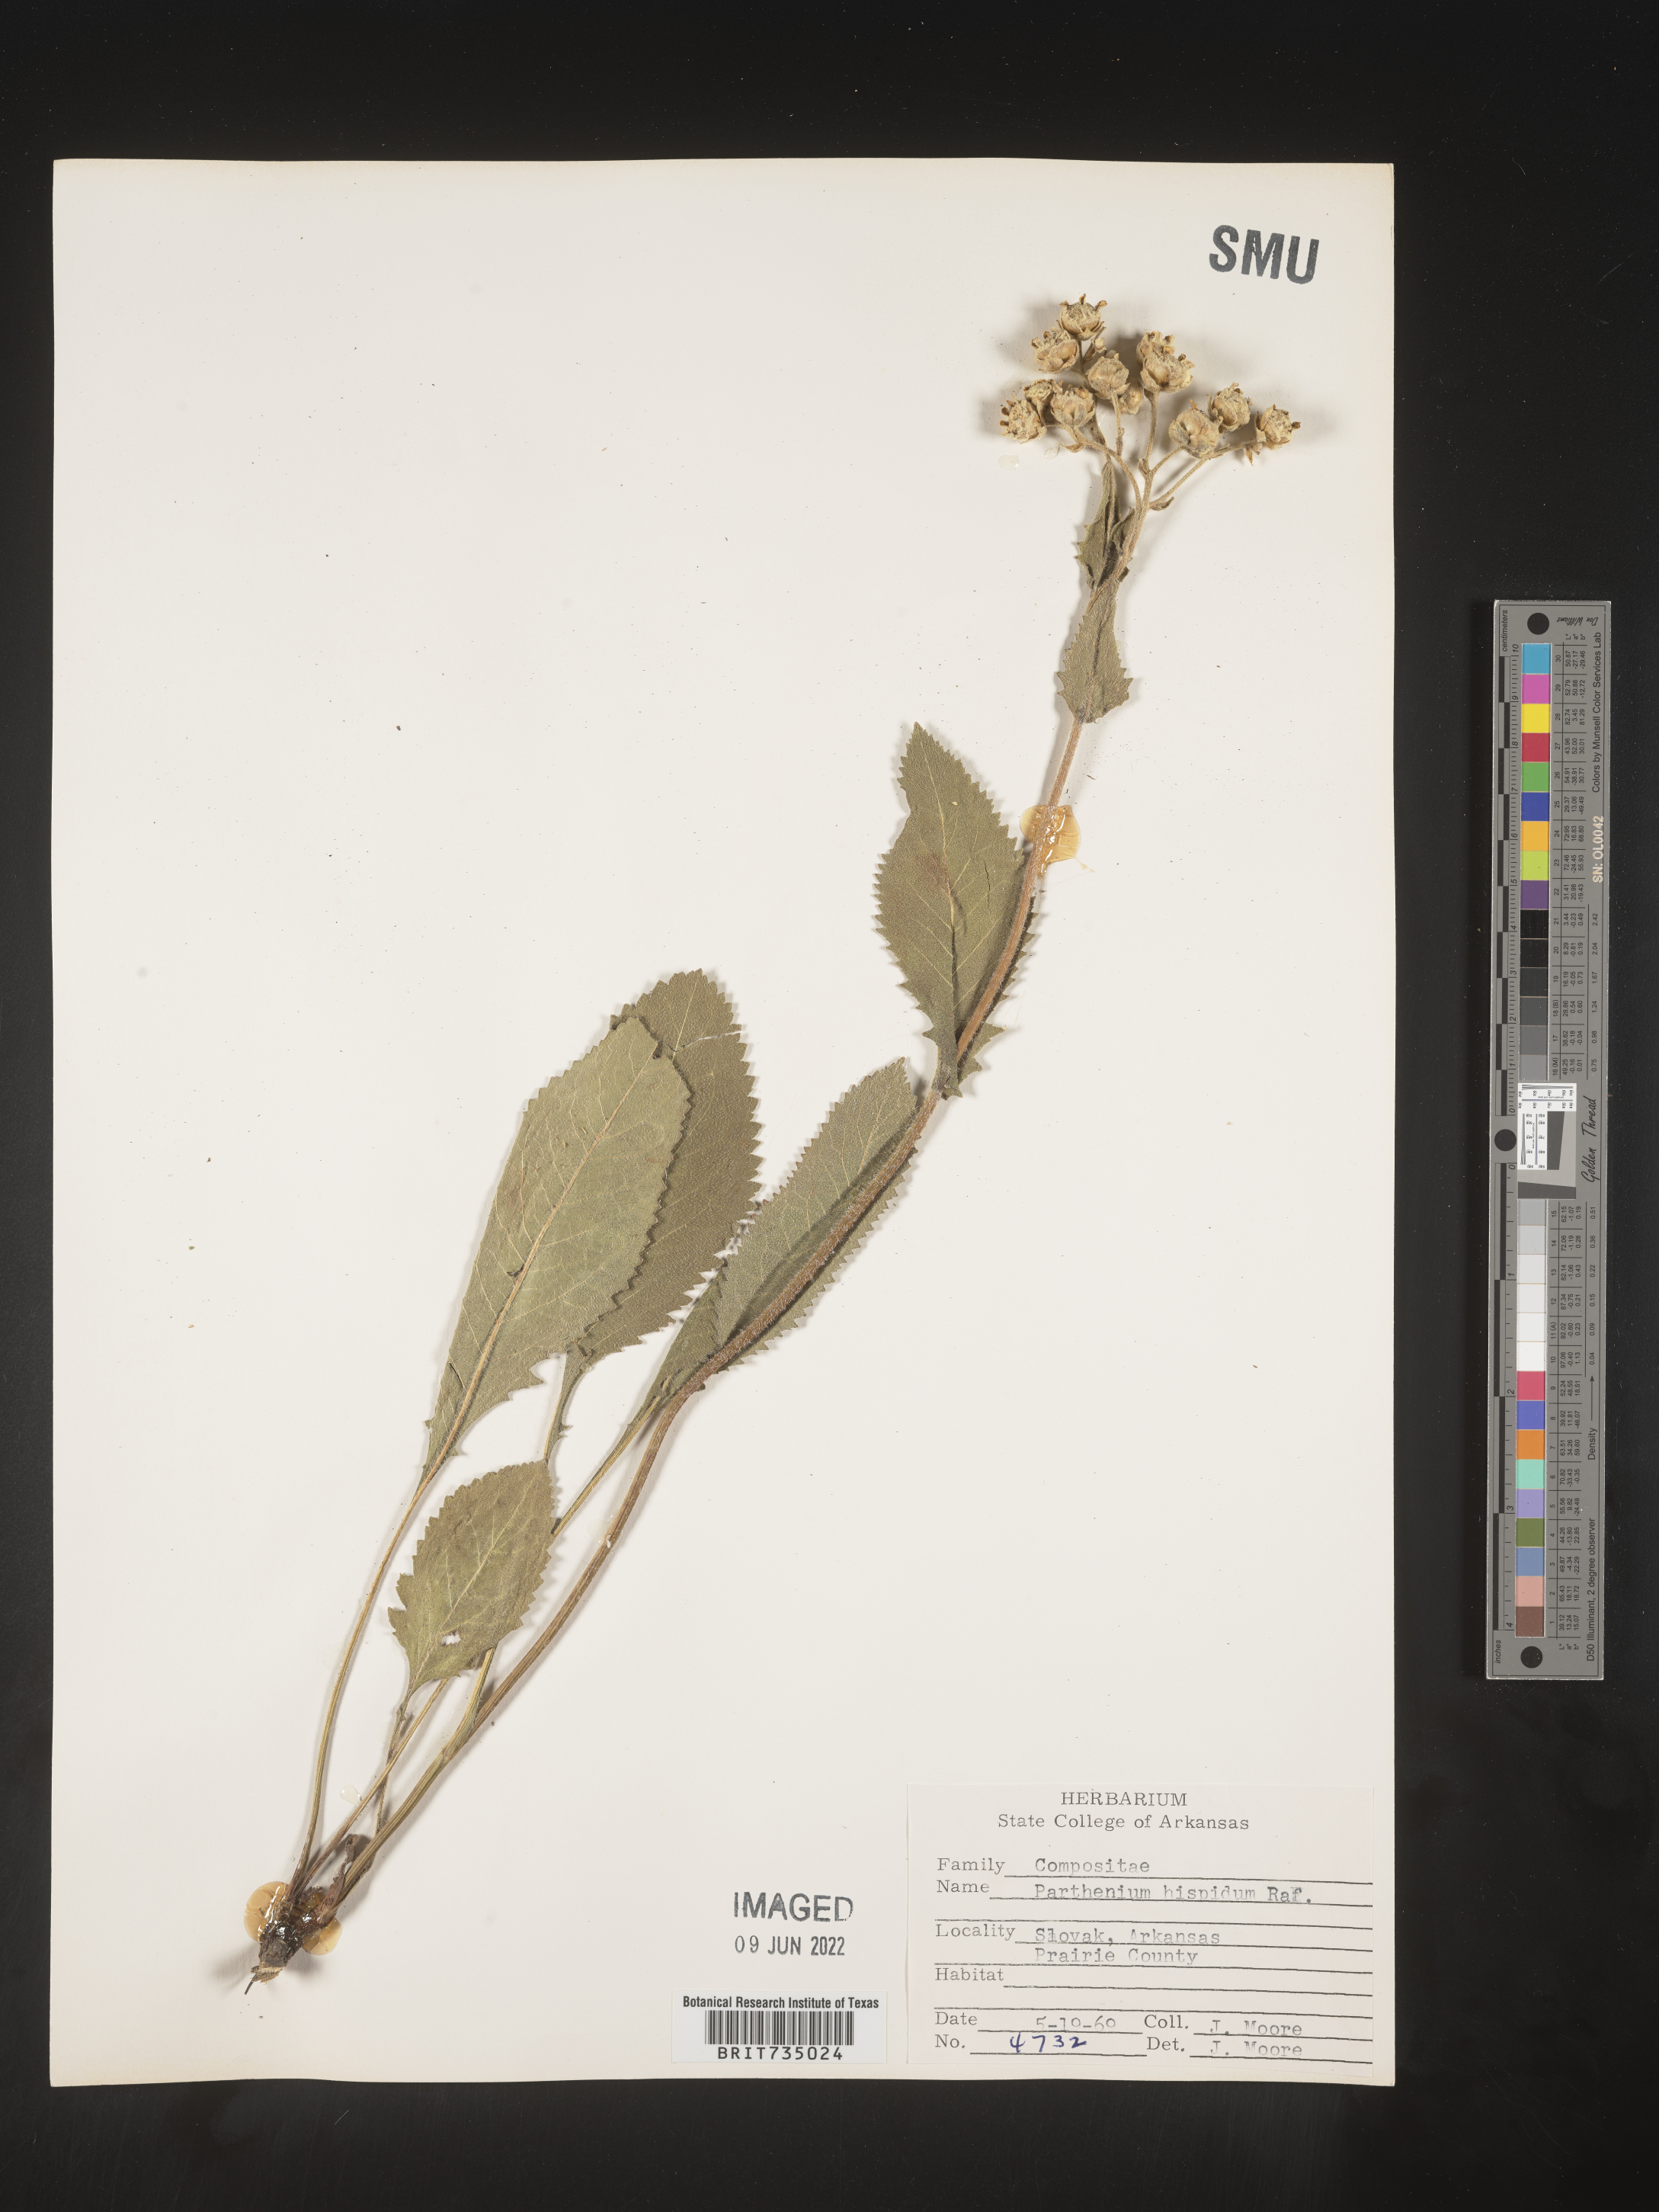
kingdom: Plantae
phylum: Tracheophyta
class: Magnoliopsida
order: Asterales
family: Asteraceae
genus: Parthenium
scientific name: Parthenium hispidum
